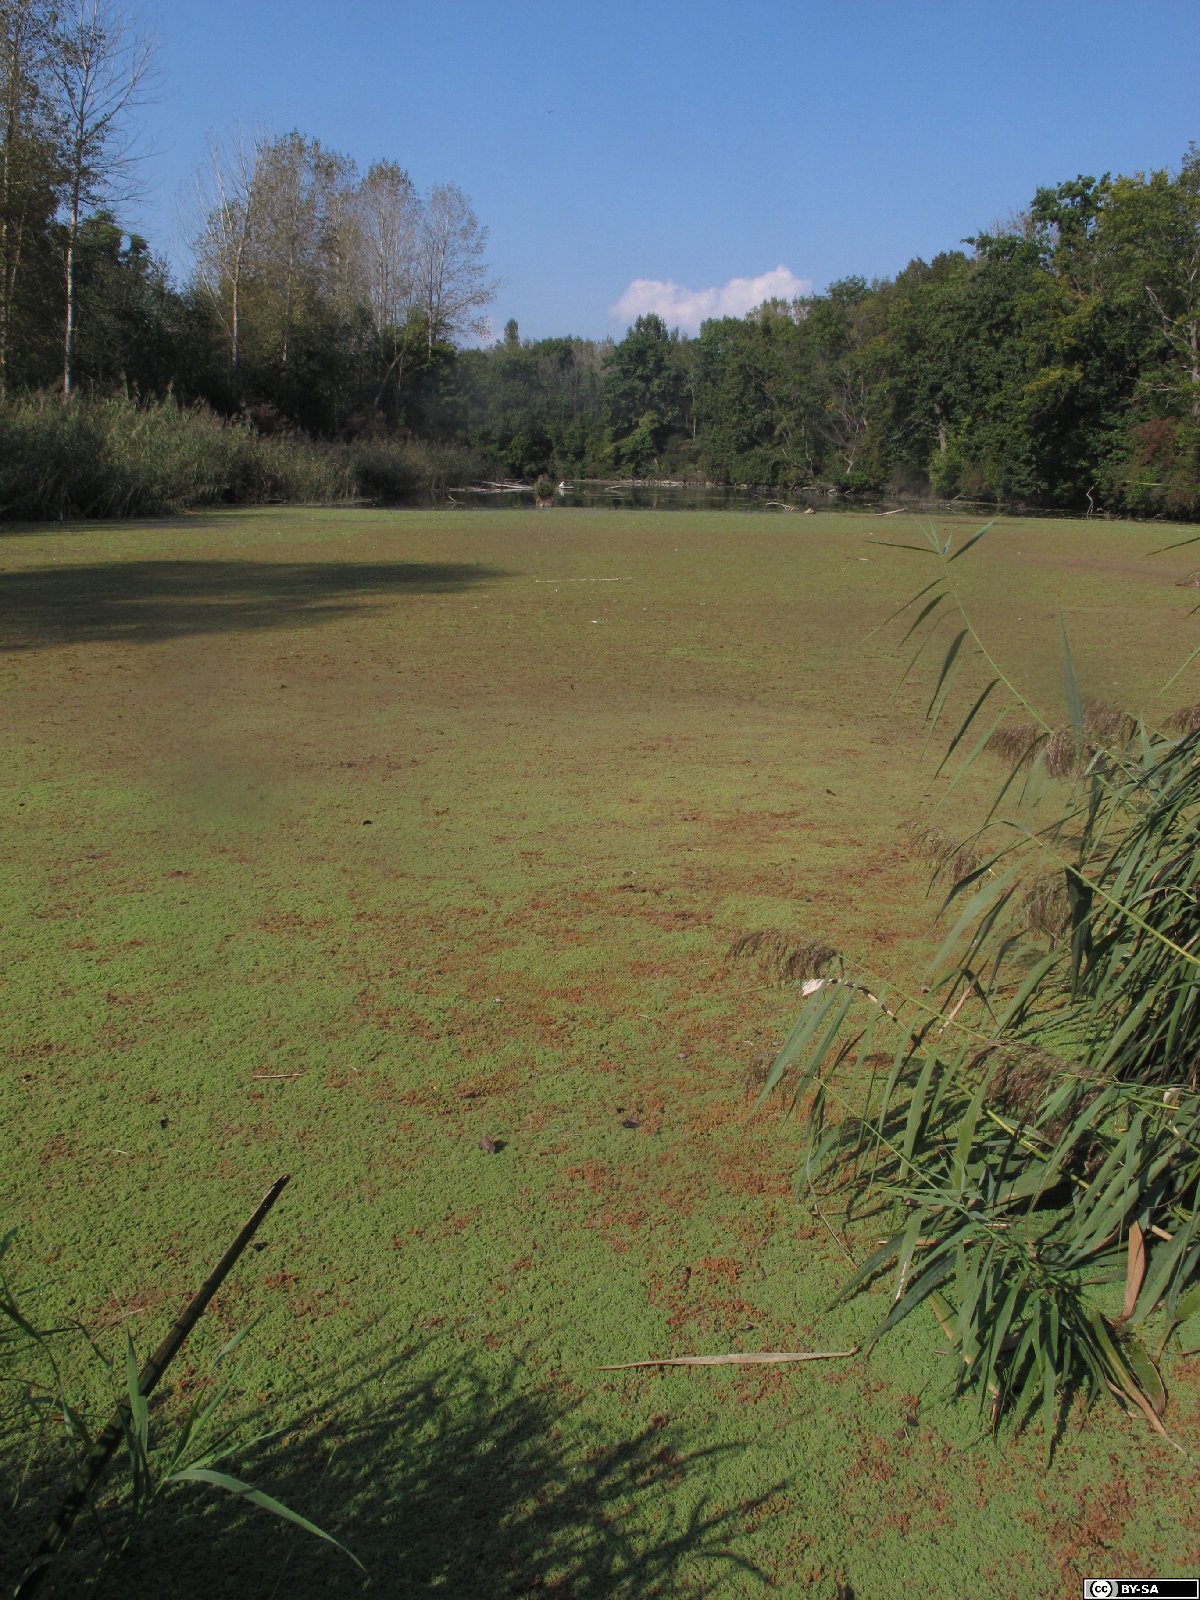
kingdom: Plantae
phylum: Tracheophyta
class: Polypodiopsida
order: Salviniales
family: Salviniaceae
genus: Azolla
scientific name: Azolla filiculoides
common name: Water fern
